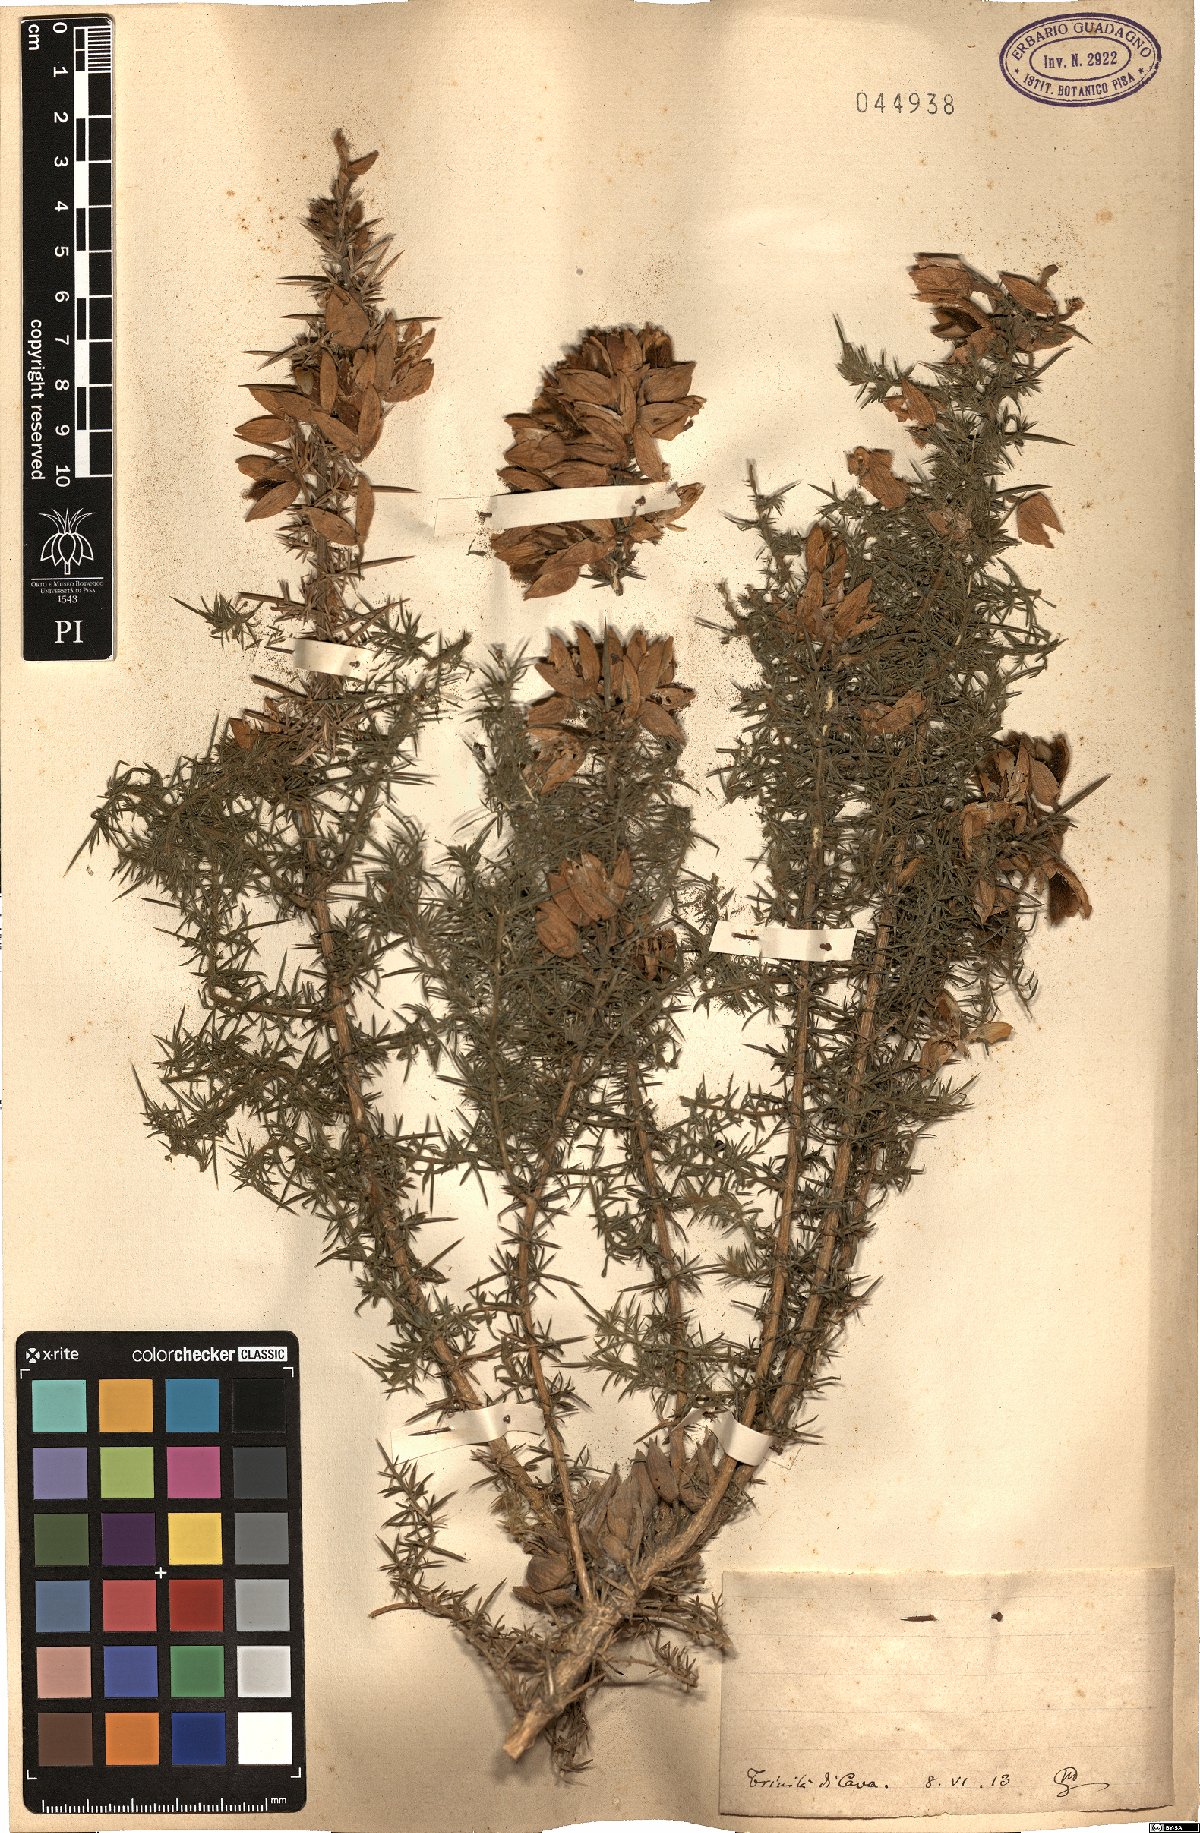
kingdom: Plantae
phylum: Tracheophyta
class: Magnoliopsida
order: Fabales
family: Fabaceae
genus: Ulex
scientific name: Ulex
